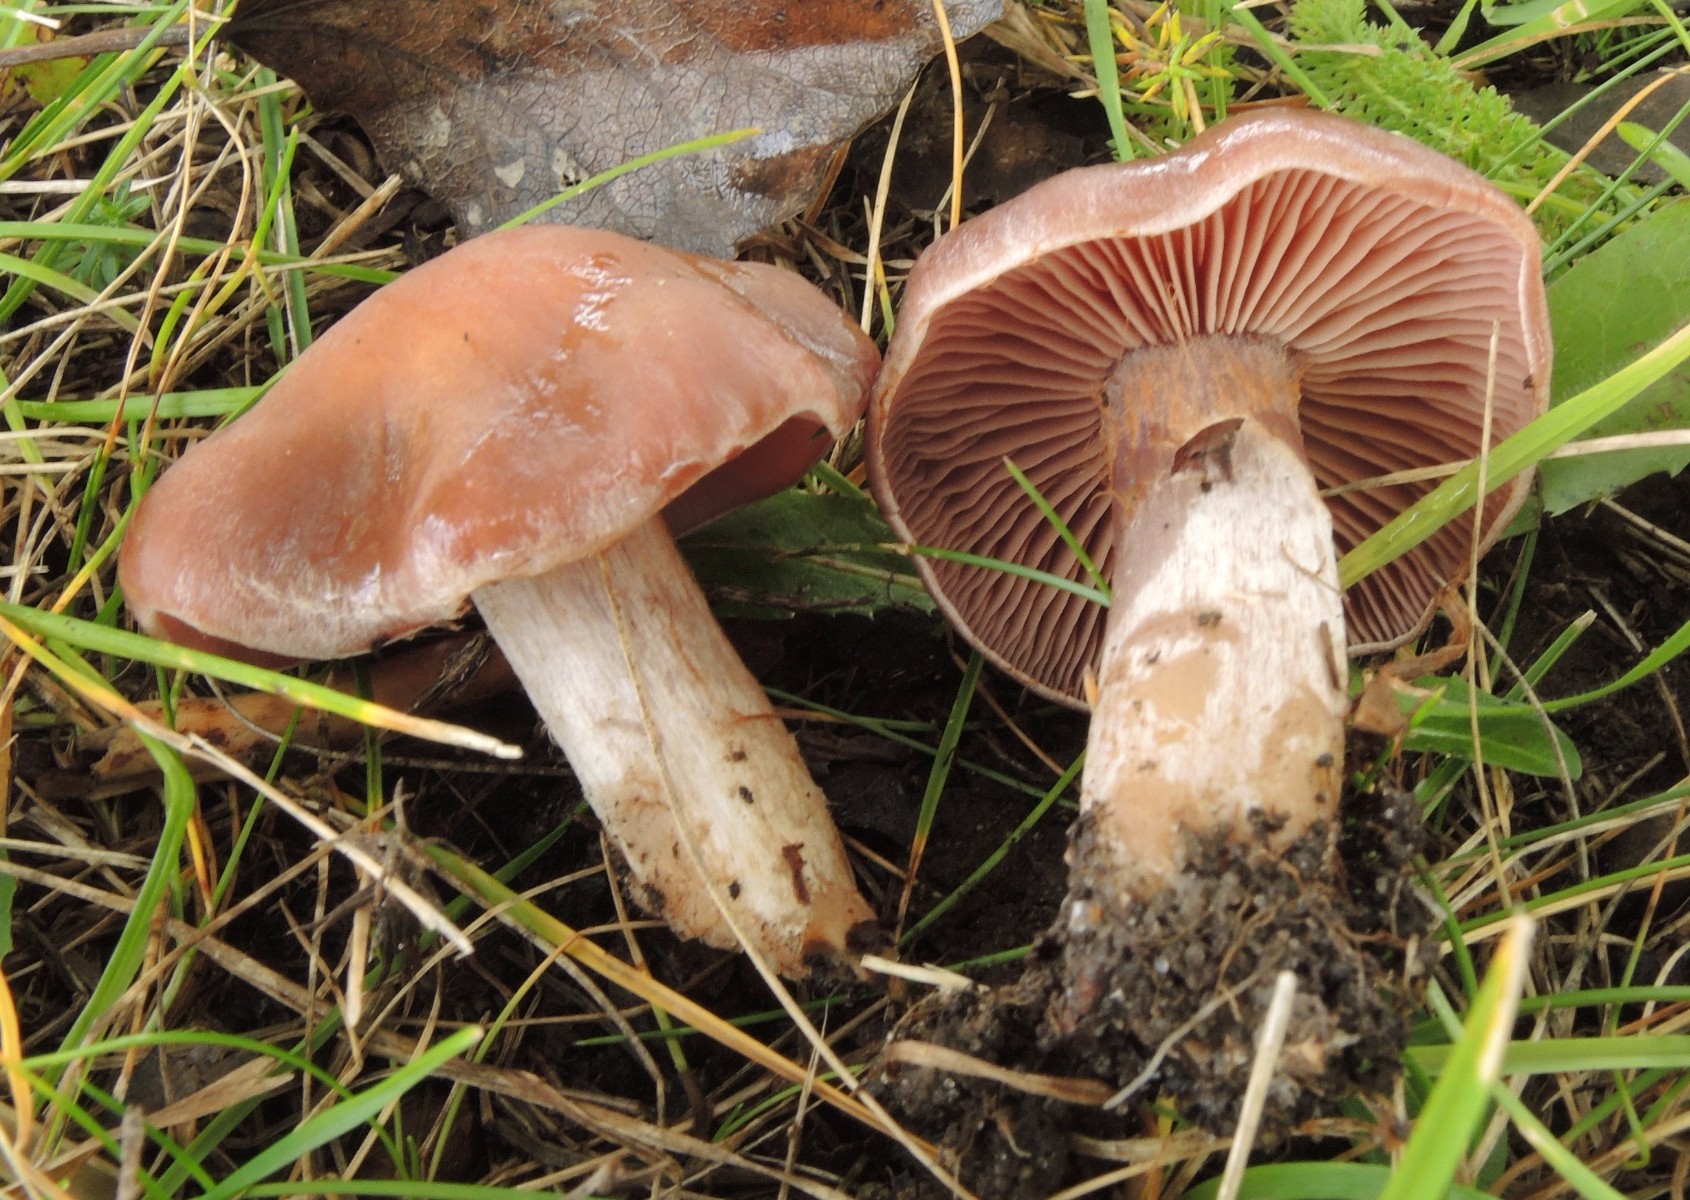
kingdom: Fungi
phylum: Basidiomycota
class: Agaricomycetes
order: Agaricales
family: Cortinariaceae
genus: Cortinarius
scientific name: Cortinarius
